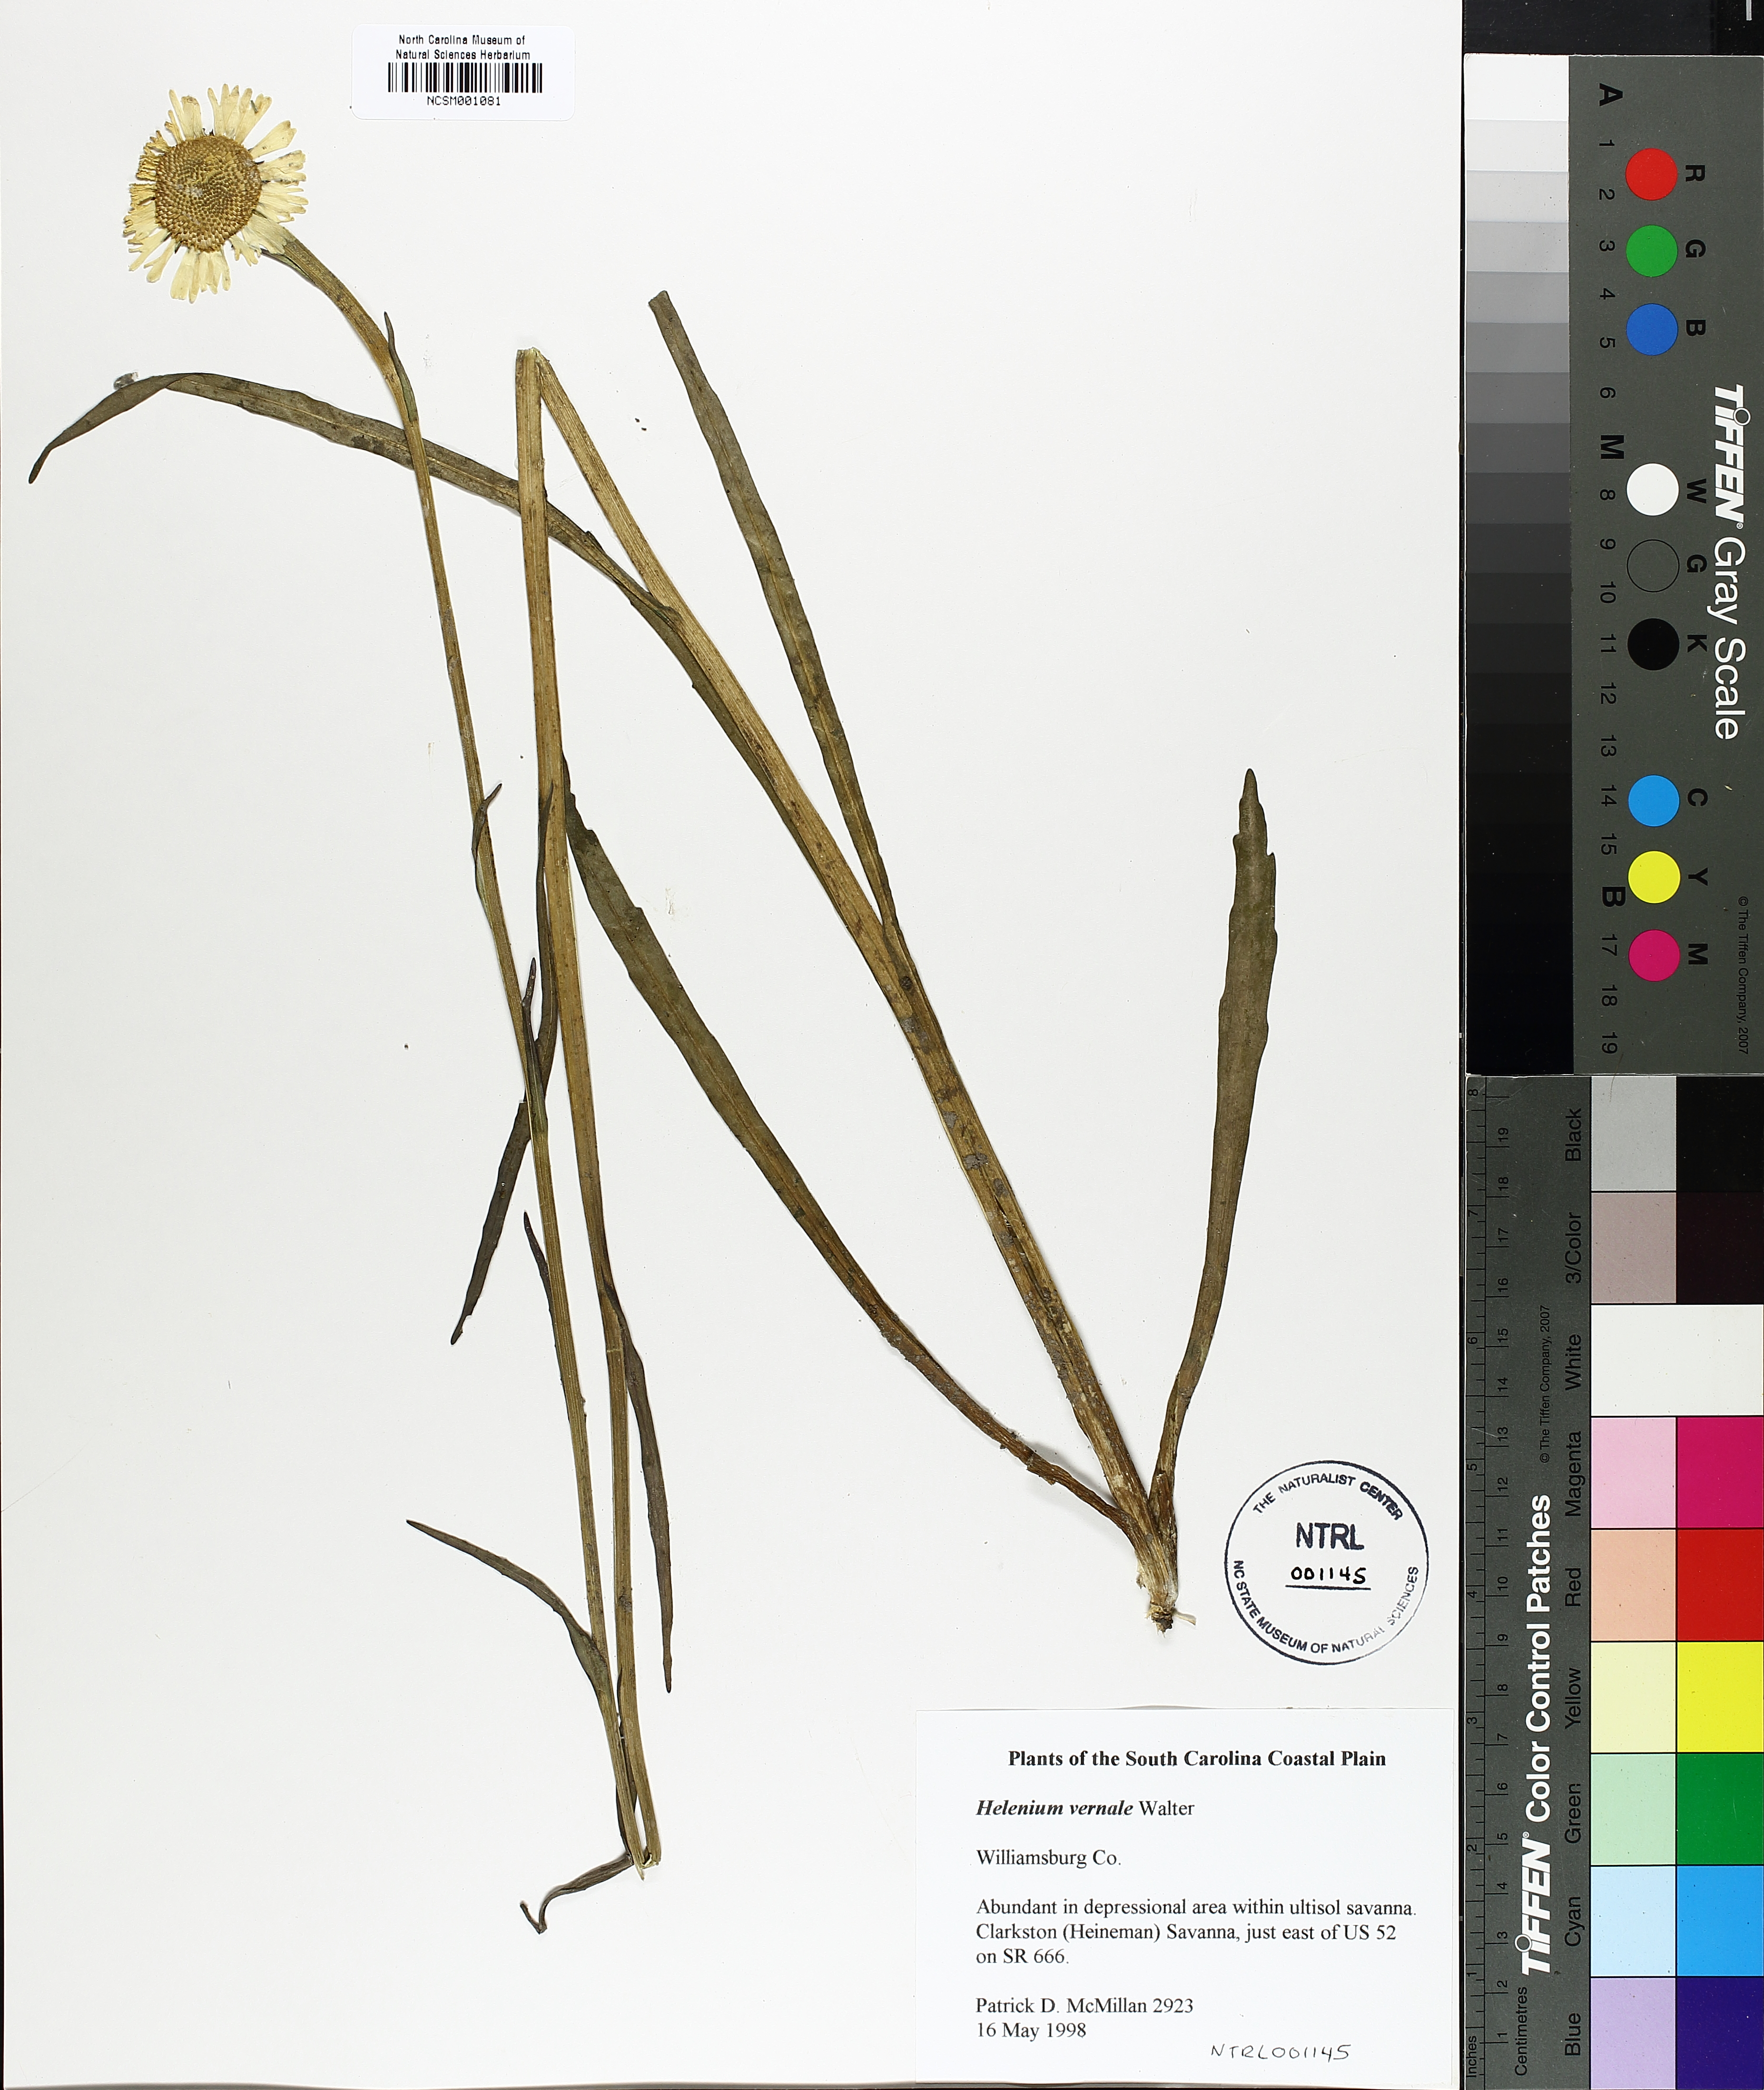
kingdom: Plantae
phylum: Tracheophyta
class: Magnoliopsida
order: Asterales
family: Asteraceae
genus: Helenium
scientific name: Helenium vernale
